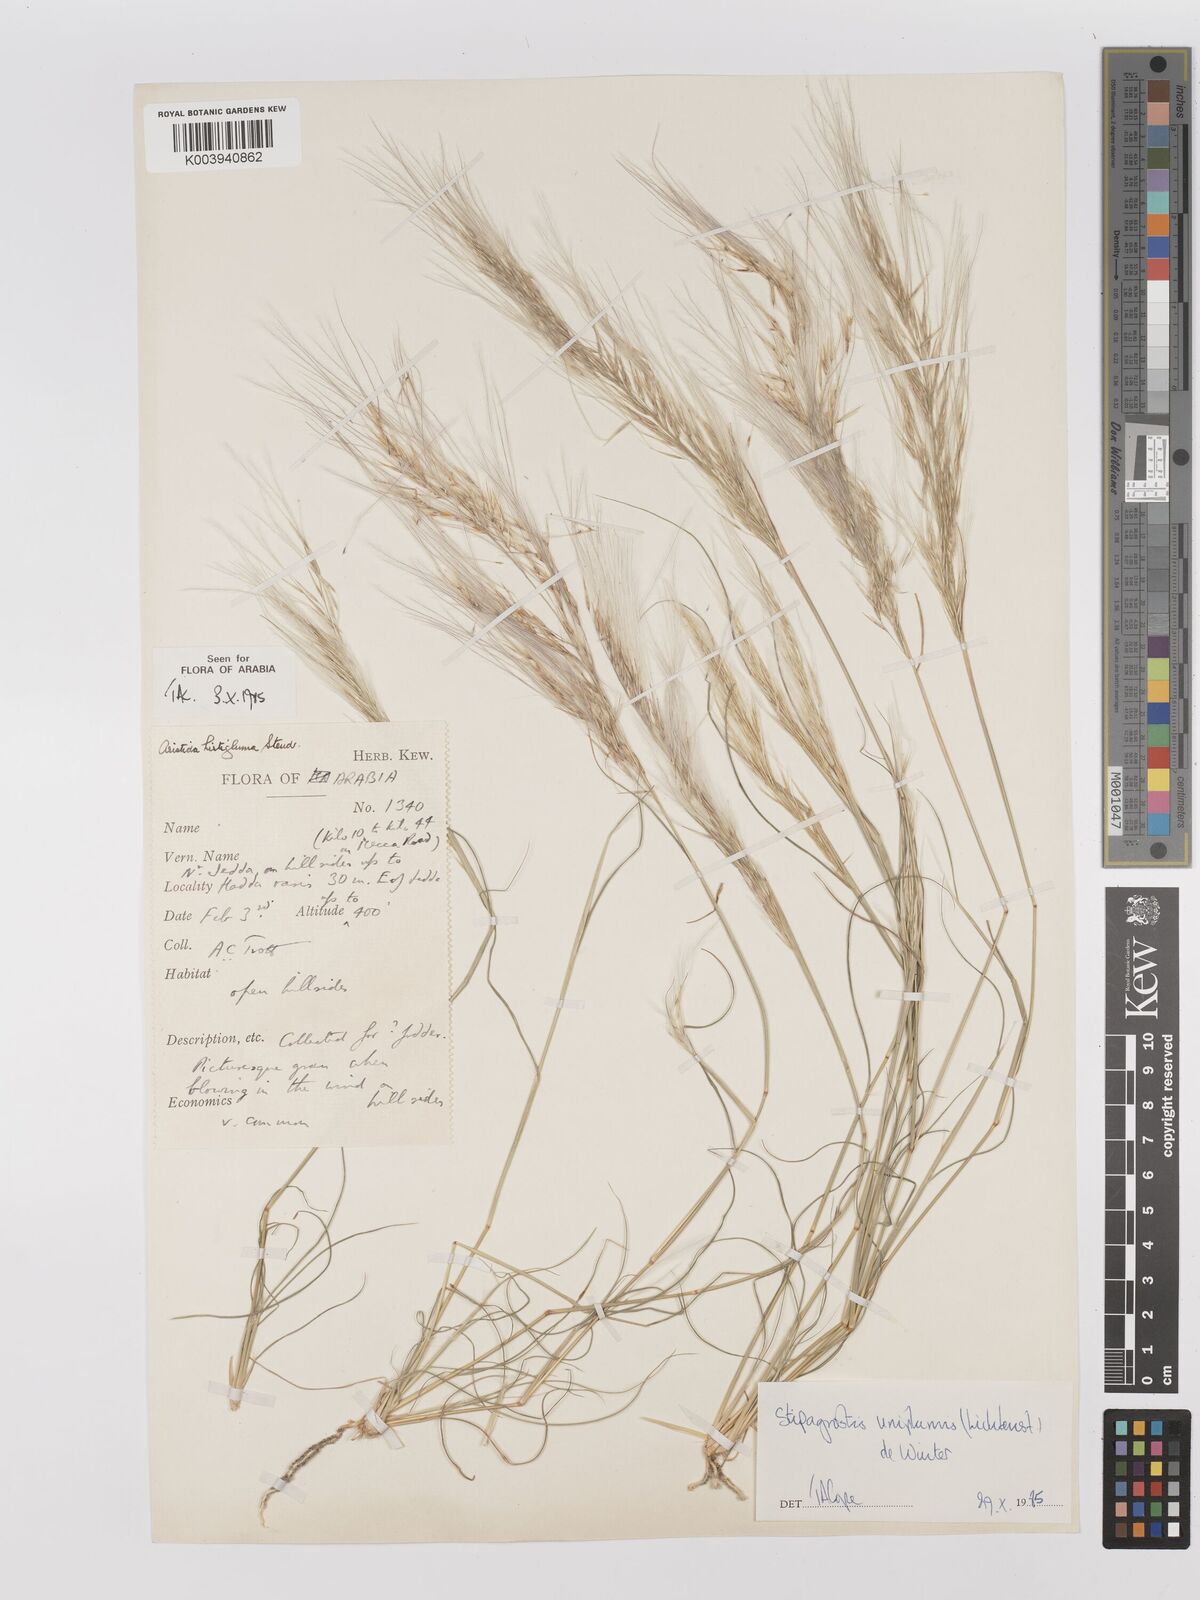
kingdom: Plantae
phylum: Tracheophyta
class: Liliopsida
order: Poales
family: Poaceae
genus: Stipagrostis
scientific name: Stipagrostis uniplumis
